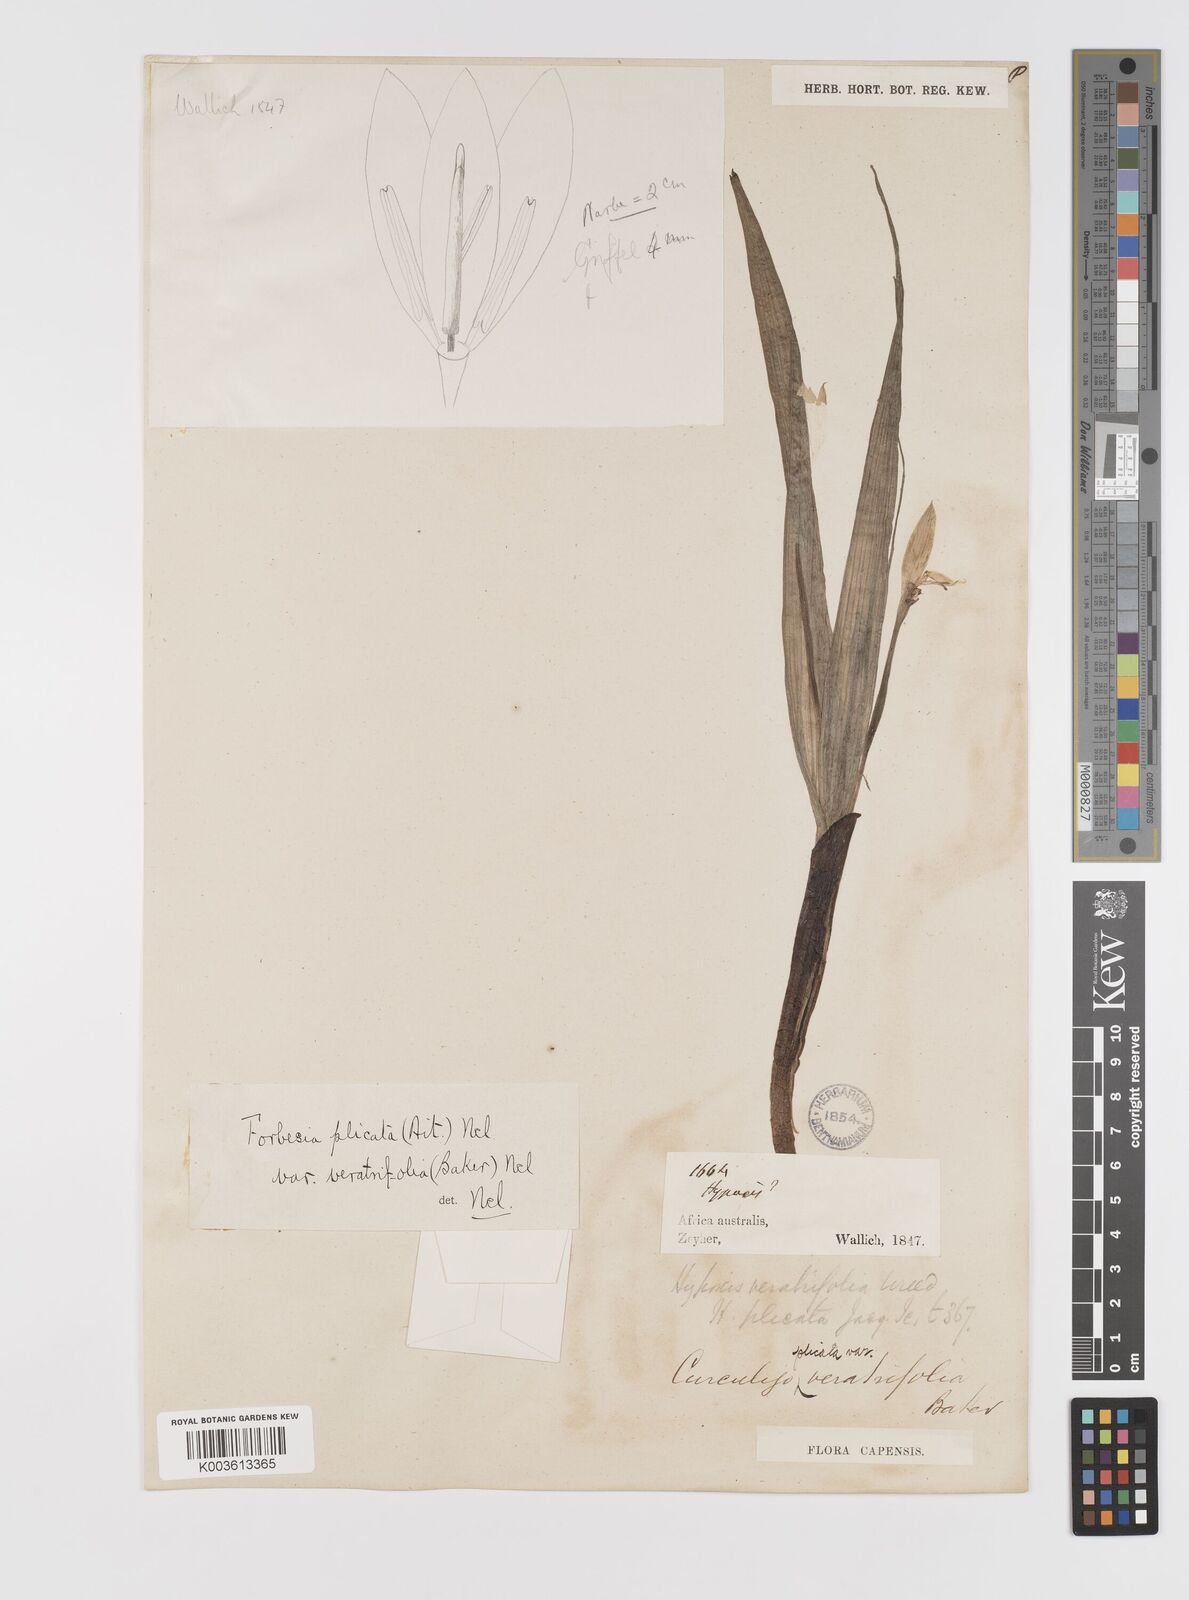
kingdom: Plantae
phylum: Tracheophyta
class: Liliopsida
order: Asparagales
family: Hypoxidaceae
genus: Empodium
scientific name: Empodium veratrifolium
